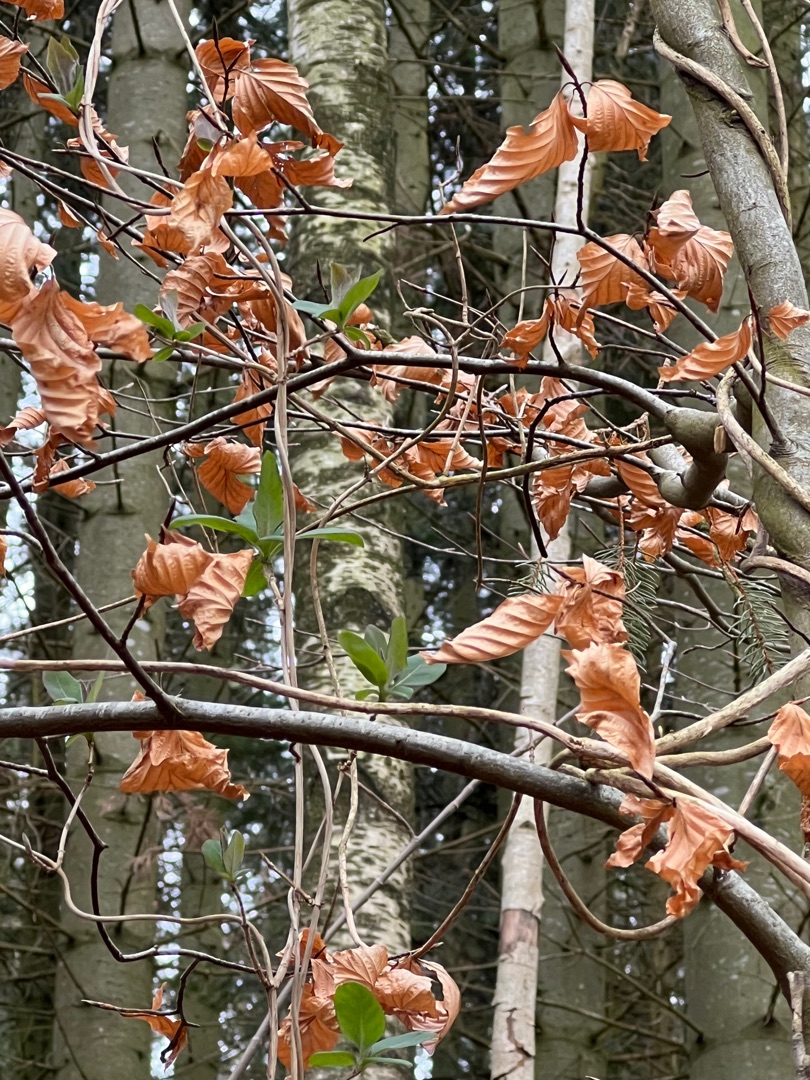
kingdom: Plantae
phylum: Tracheophyta
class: Magnoliopsida
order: Dipsacales
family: Caprifoliaceae
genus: Lonicera
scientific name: Lonicera periclymenum
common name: Almindelig gedeblad
